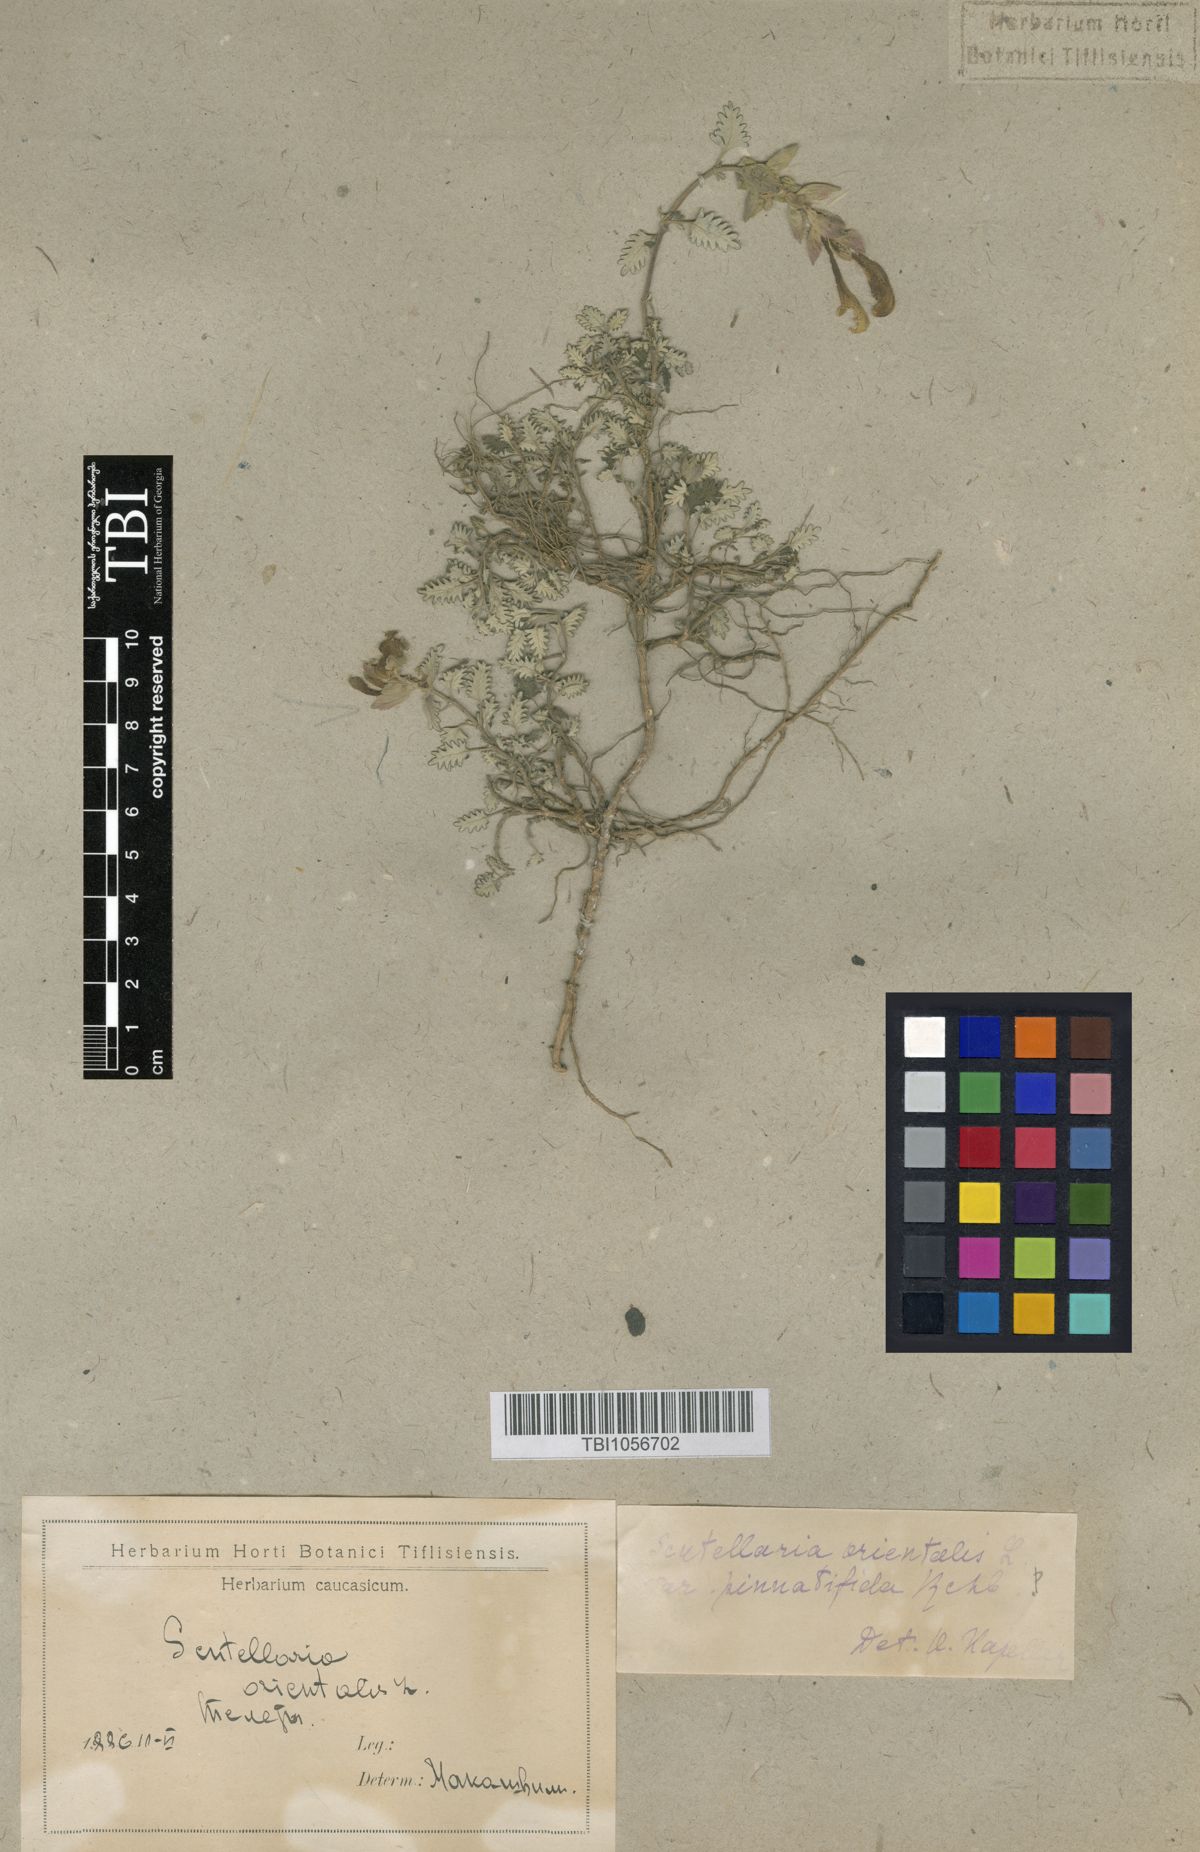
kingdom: Plantae
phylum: Tracheophyta
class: Magnoliopsida
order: Lamiales
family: Lamiaceae
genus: Scutellaria
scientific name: Scutellaria orientalis
